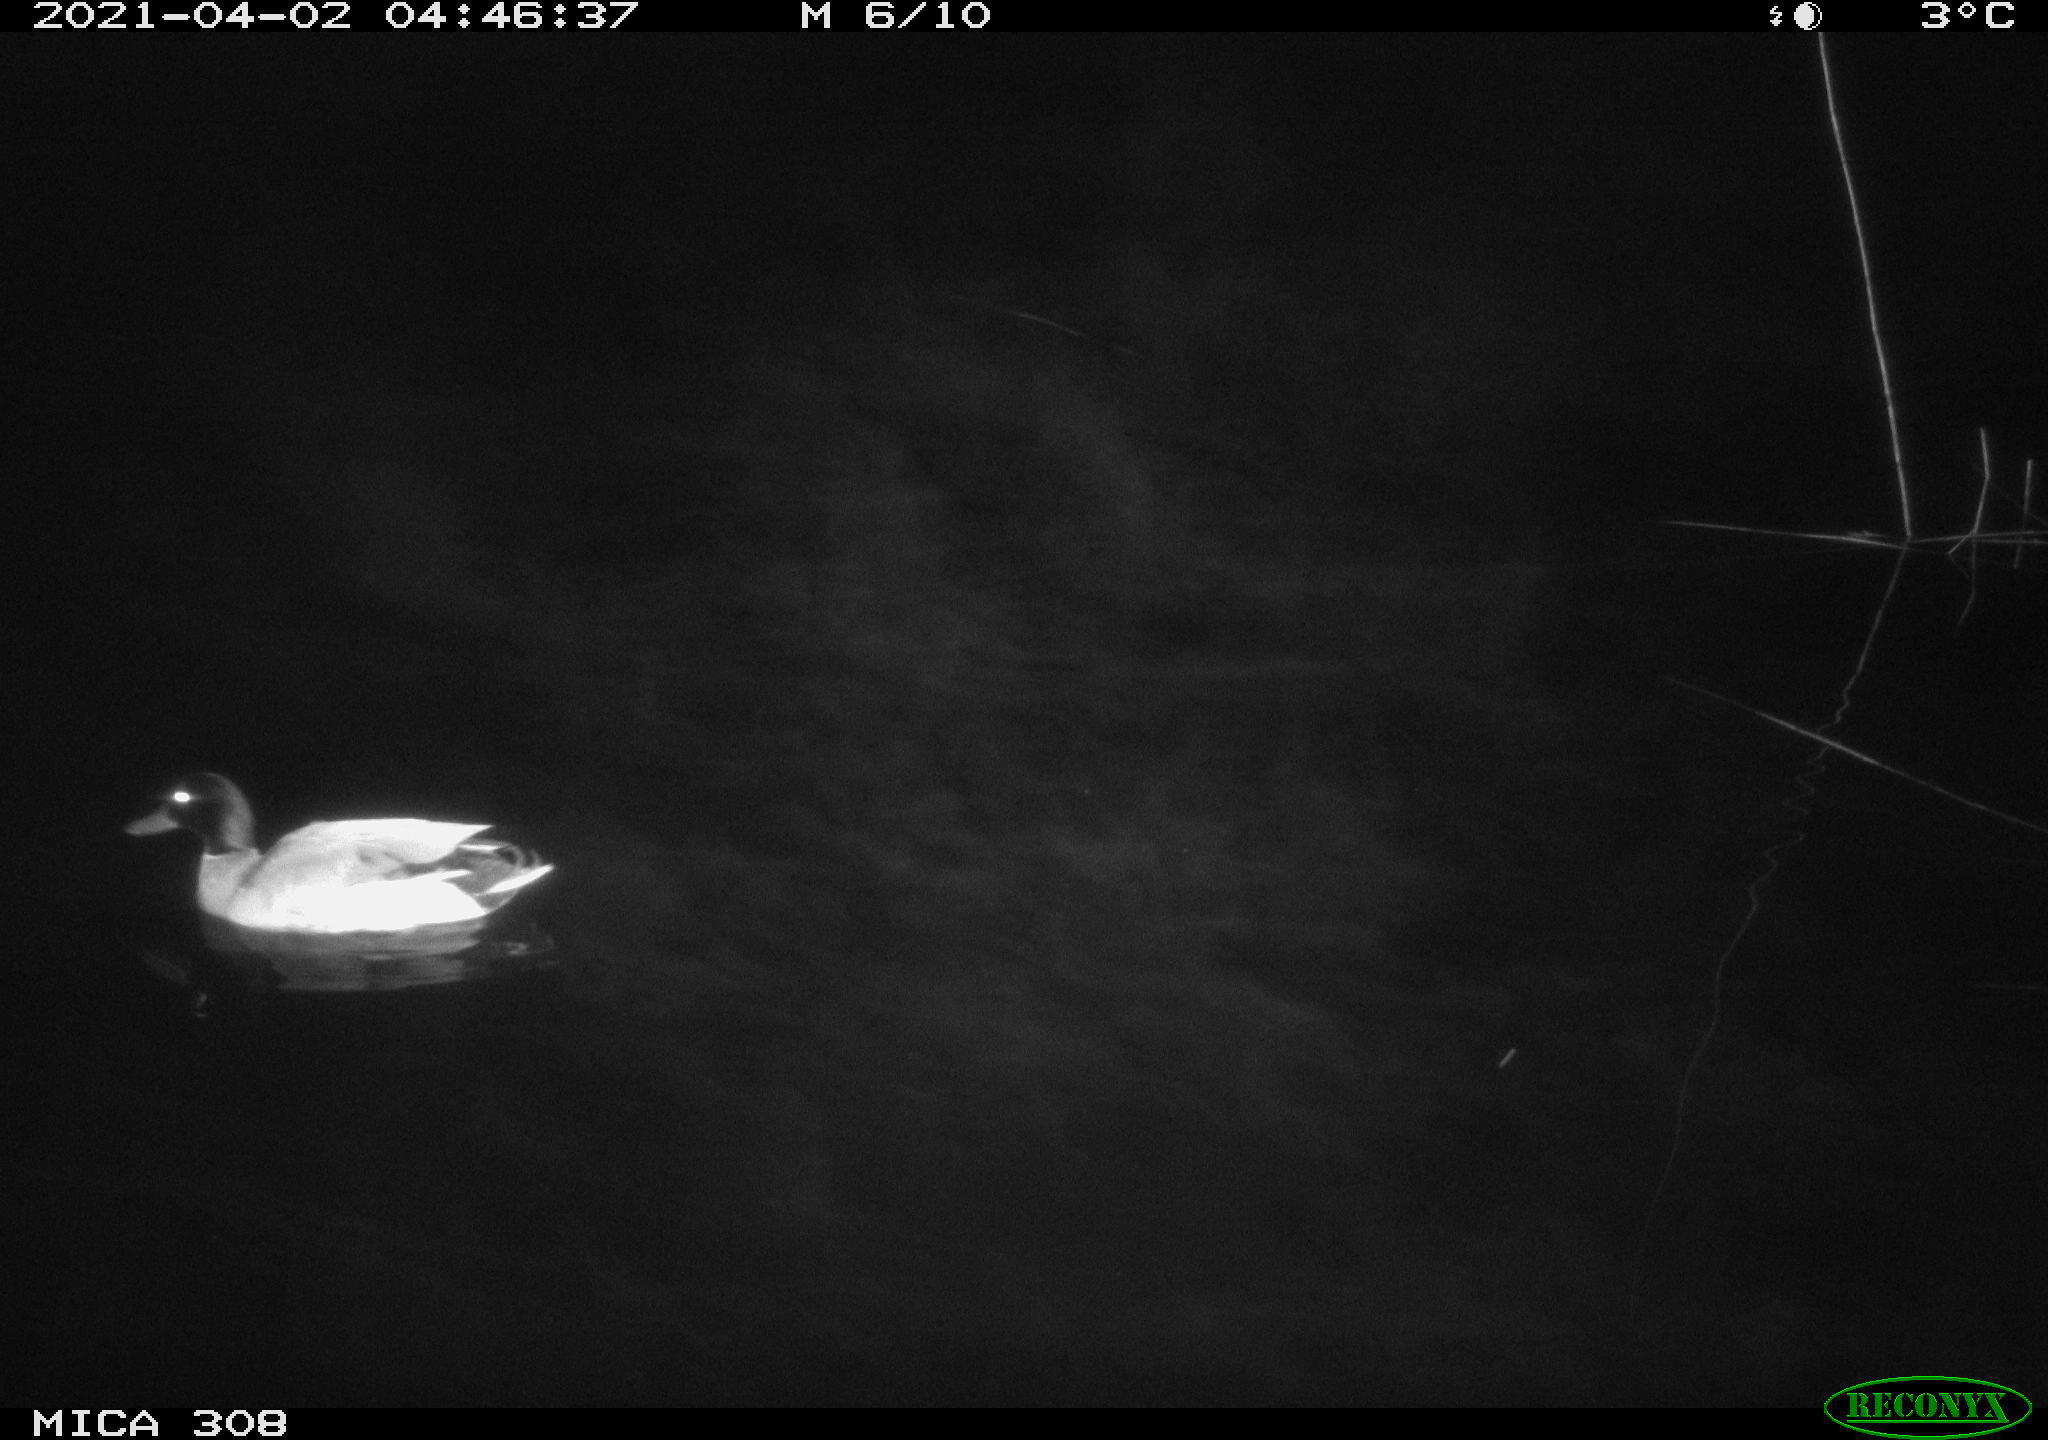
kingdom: Animalia
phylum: Chordata
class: Aves
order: Anseriformes
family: Anatidae
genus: Anas
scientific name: Anas platyrhynchos
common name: Mallard
